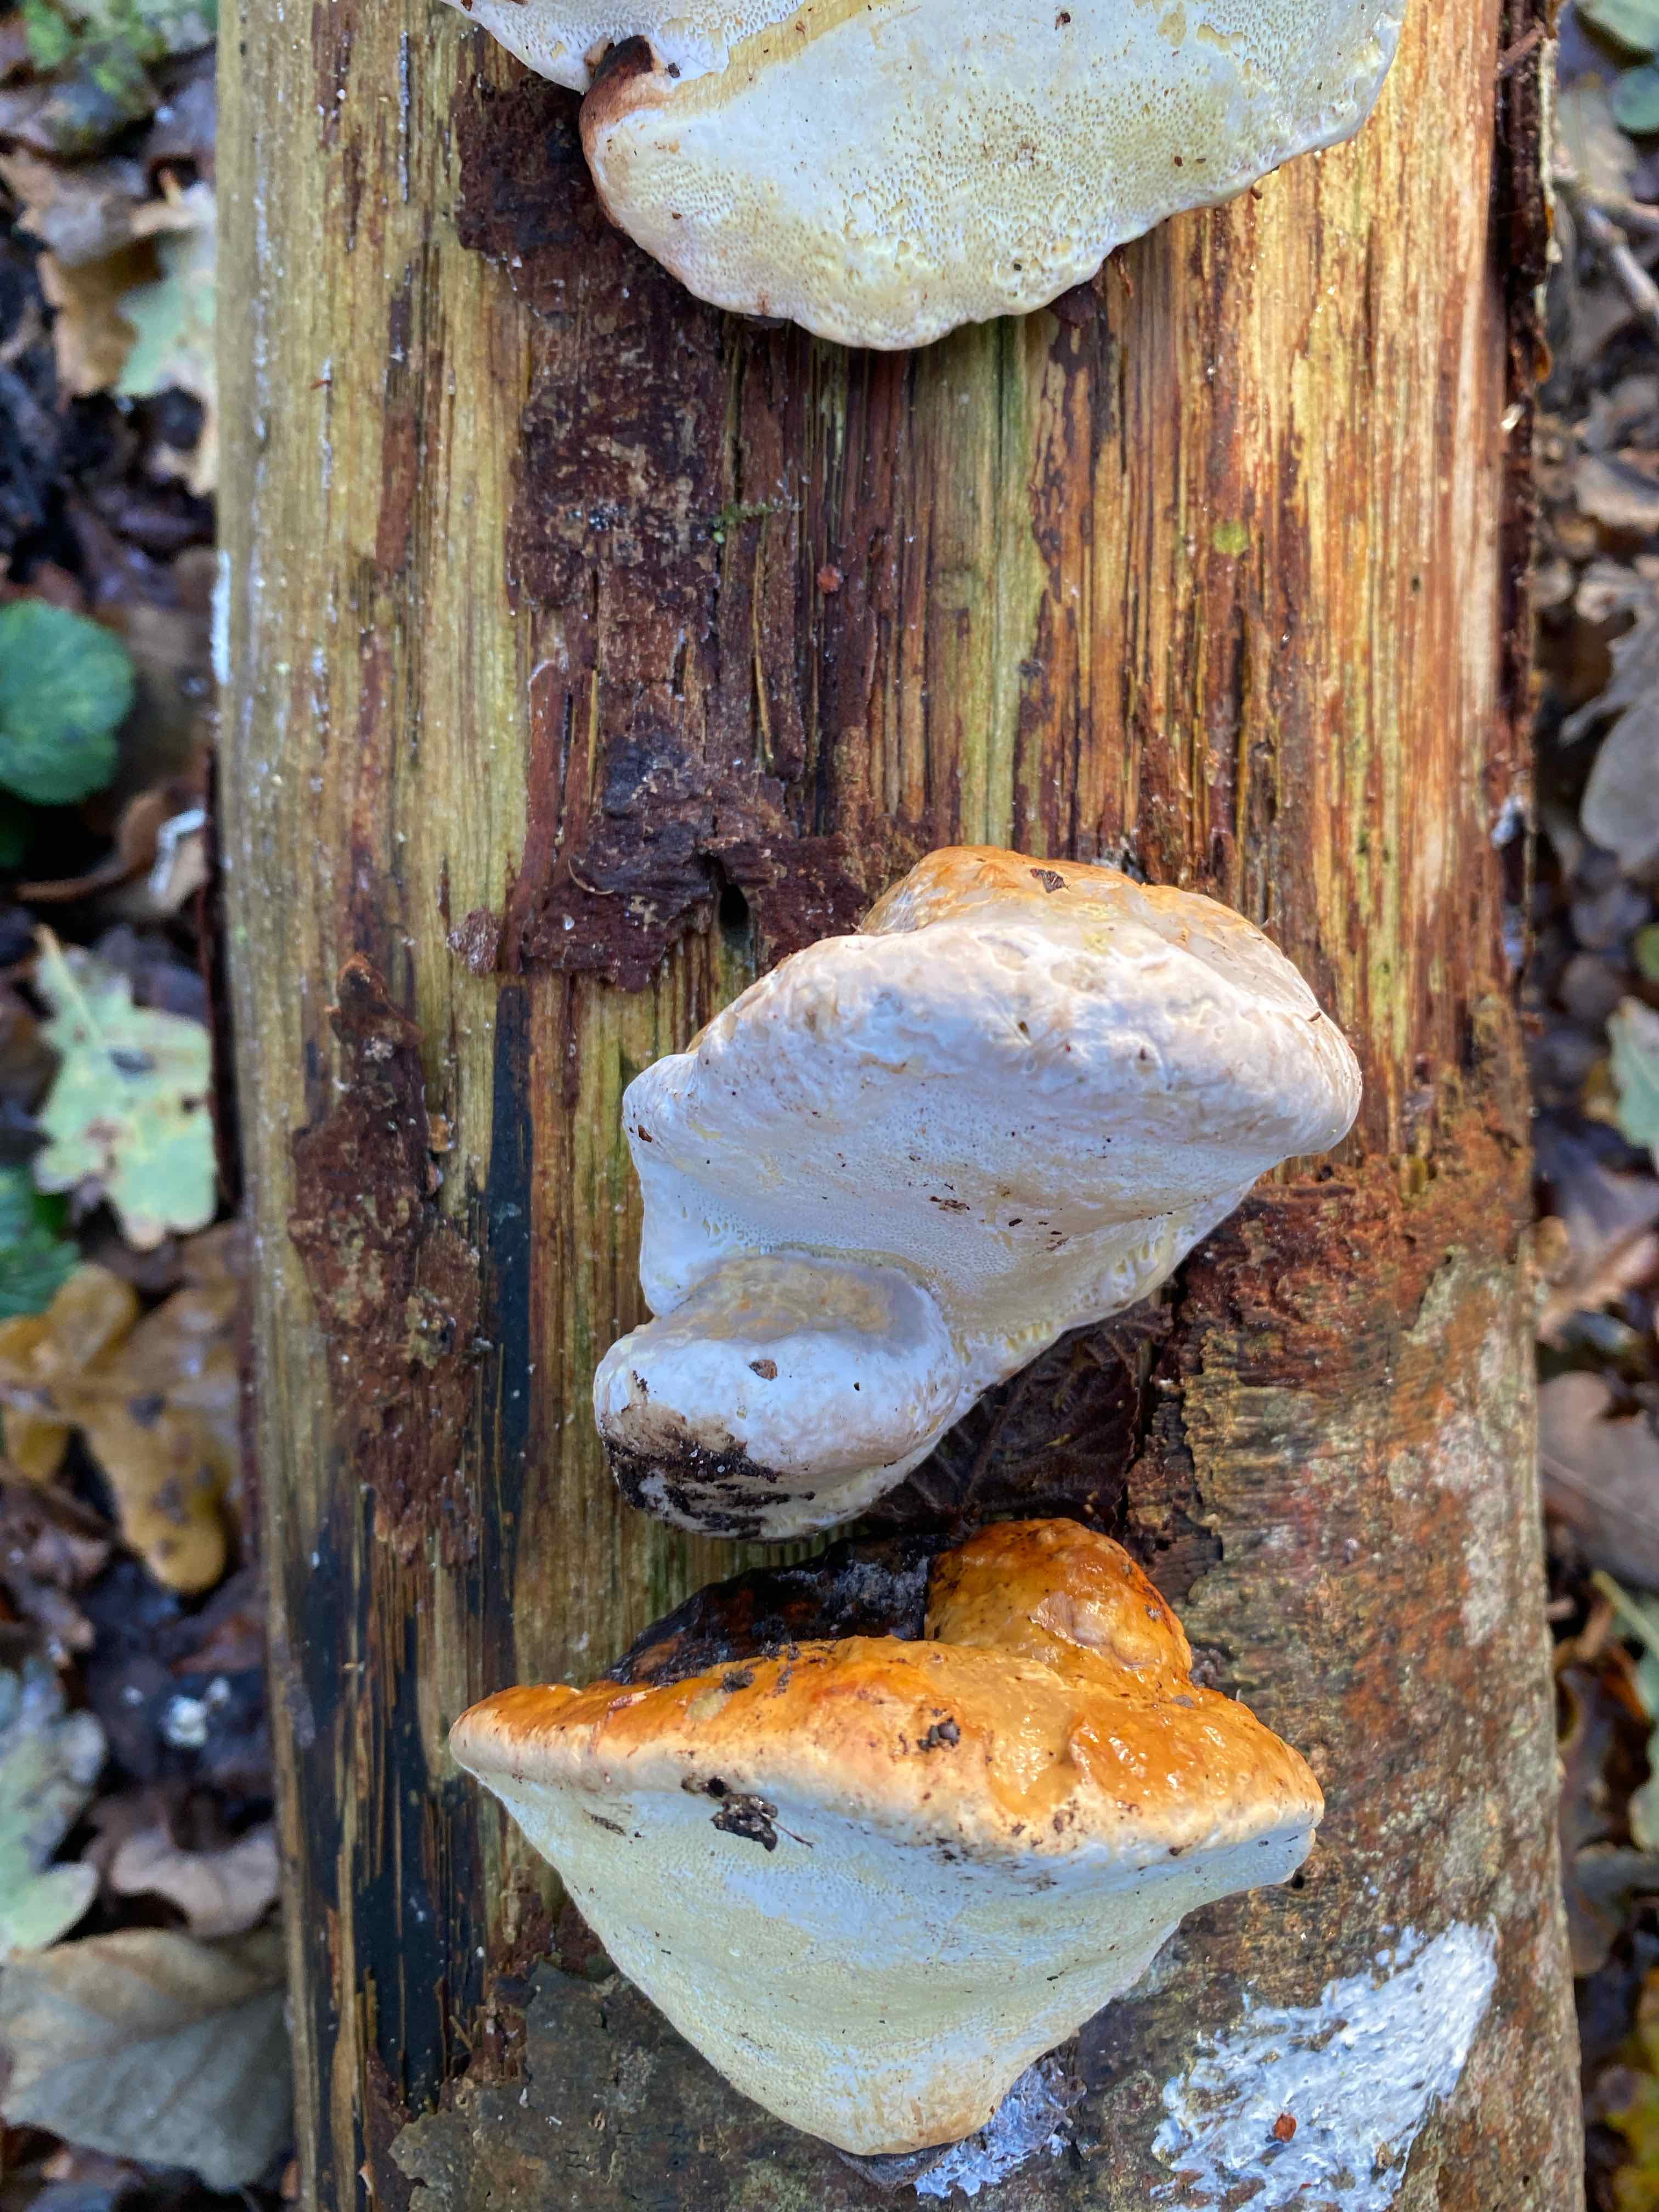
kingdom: Fungi
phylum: Basidiomycota
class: Agaricomycetes
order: Polyporales
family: Fomitopsidaceae
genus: Fomitopsis
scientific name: Fomitopsis pinicola
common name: randbæltet hovporesvamp
